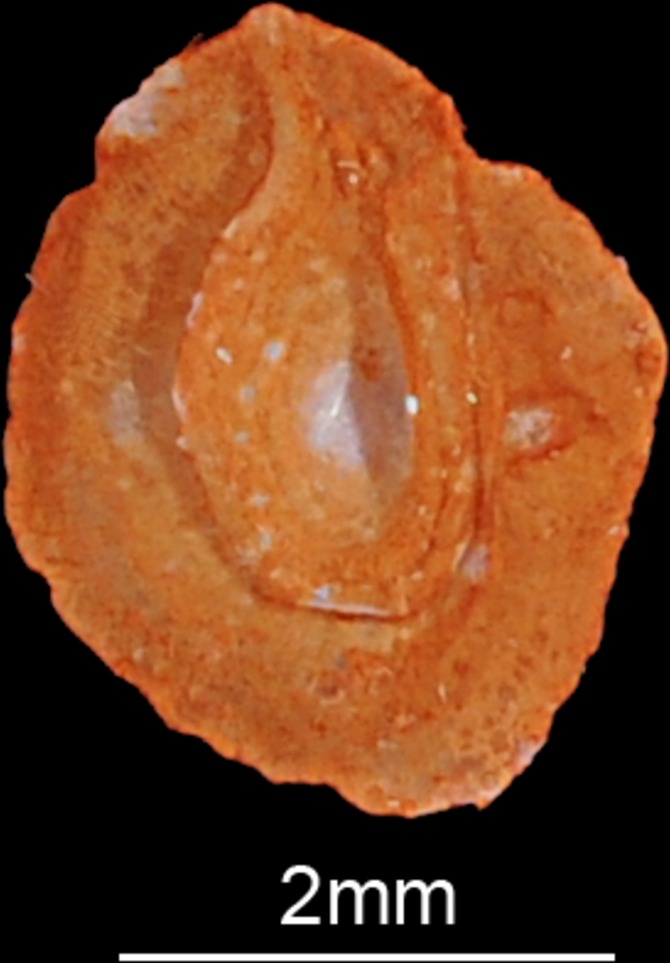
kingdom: Animalia
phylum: Chordata
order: Cypriniformes
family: Cyprinidae
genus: Pelecus
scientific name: Pelecus cultratus
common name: Ziege
